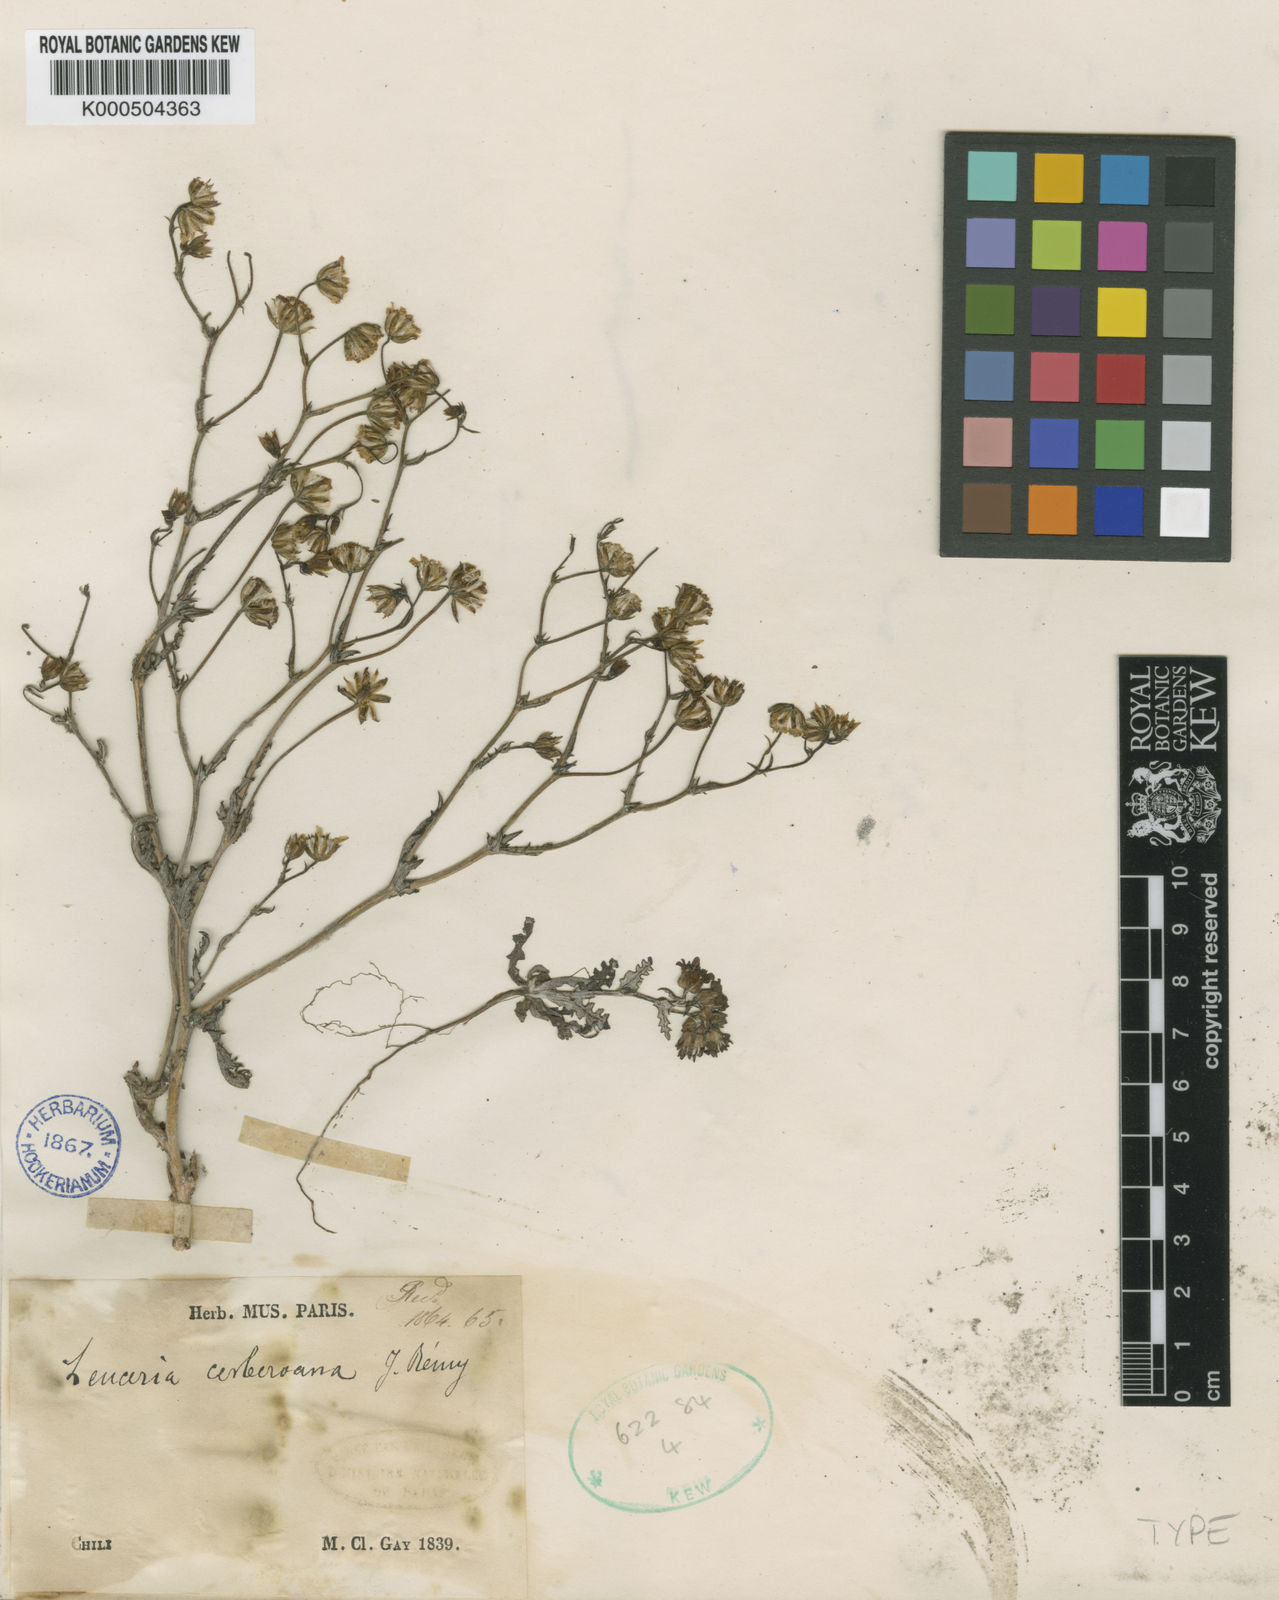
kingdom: Plantae
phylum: Tracheophyta
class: Magnoliopsida
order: Asterales
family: Asteraceae
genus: Leucheria
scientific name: Leucheria cerberoana
